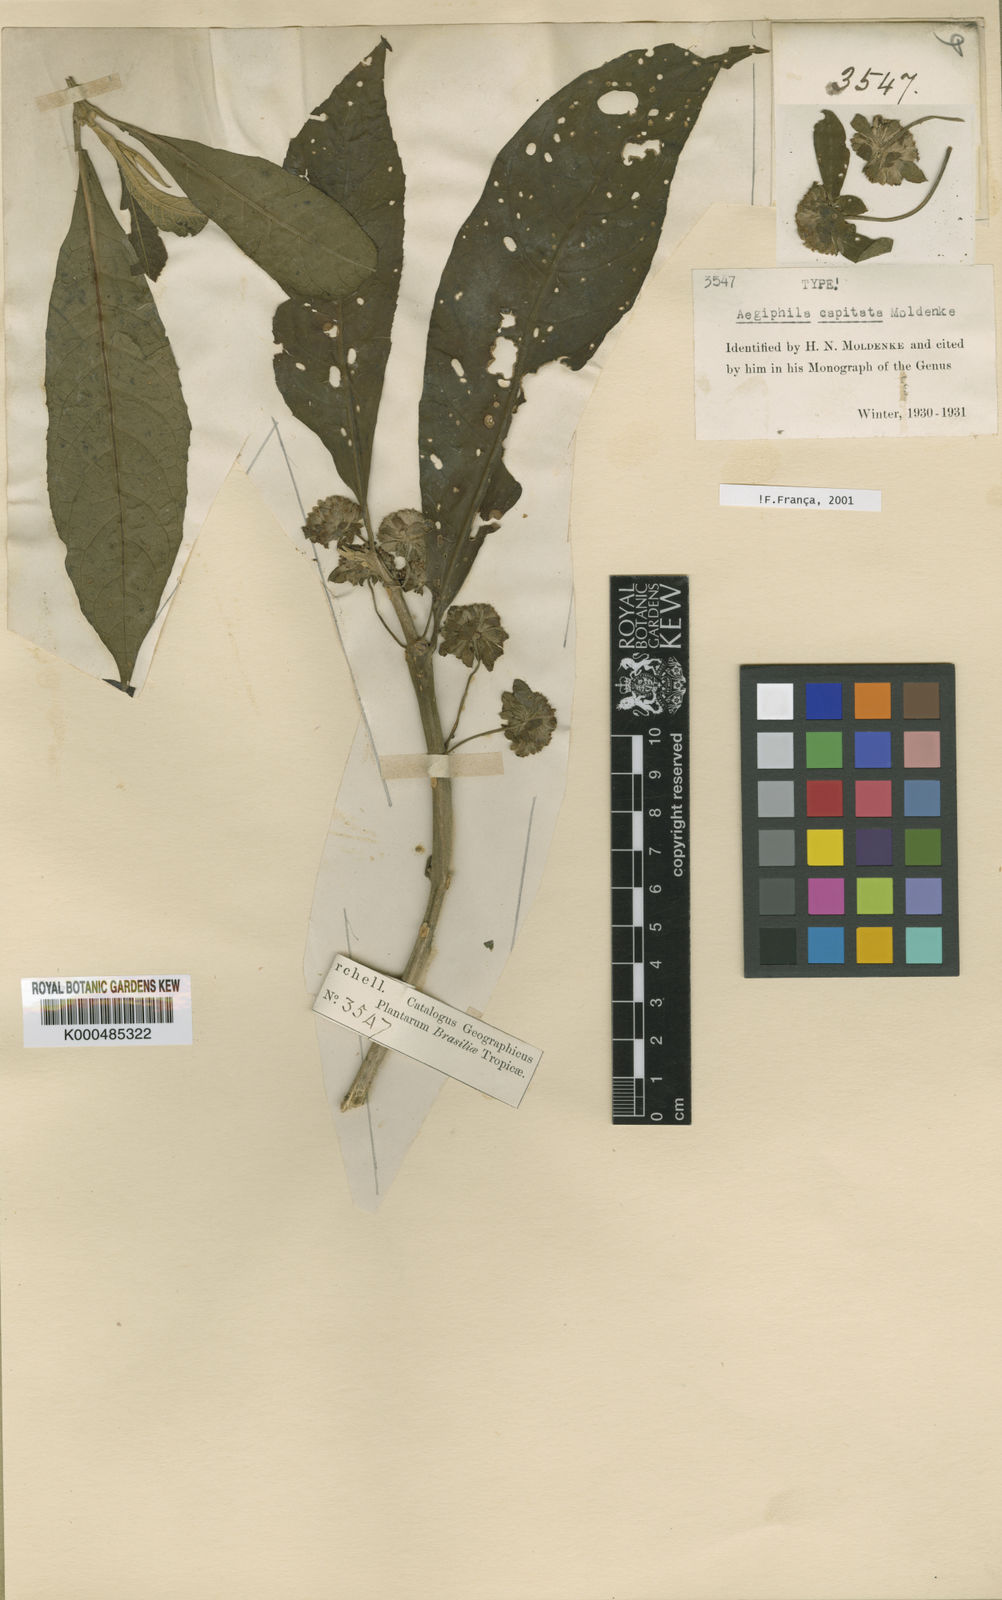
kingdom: Plantae
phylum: Tracheophyta
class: Magnoliopsida
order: Lamiales
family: Lamiaceae
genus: Aegiphila
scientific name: Aegiphila capitata
